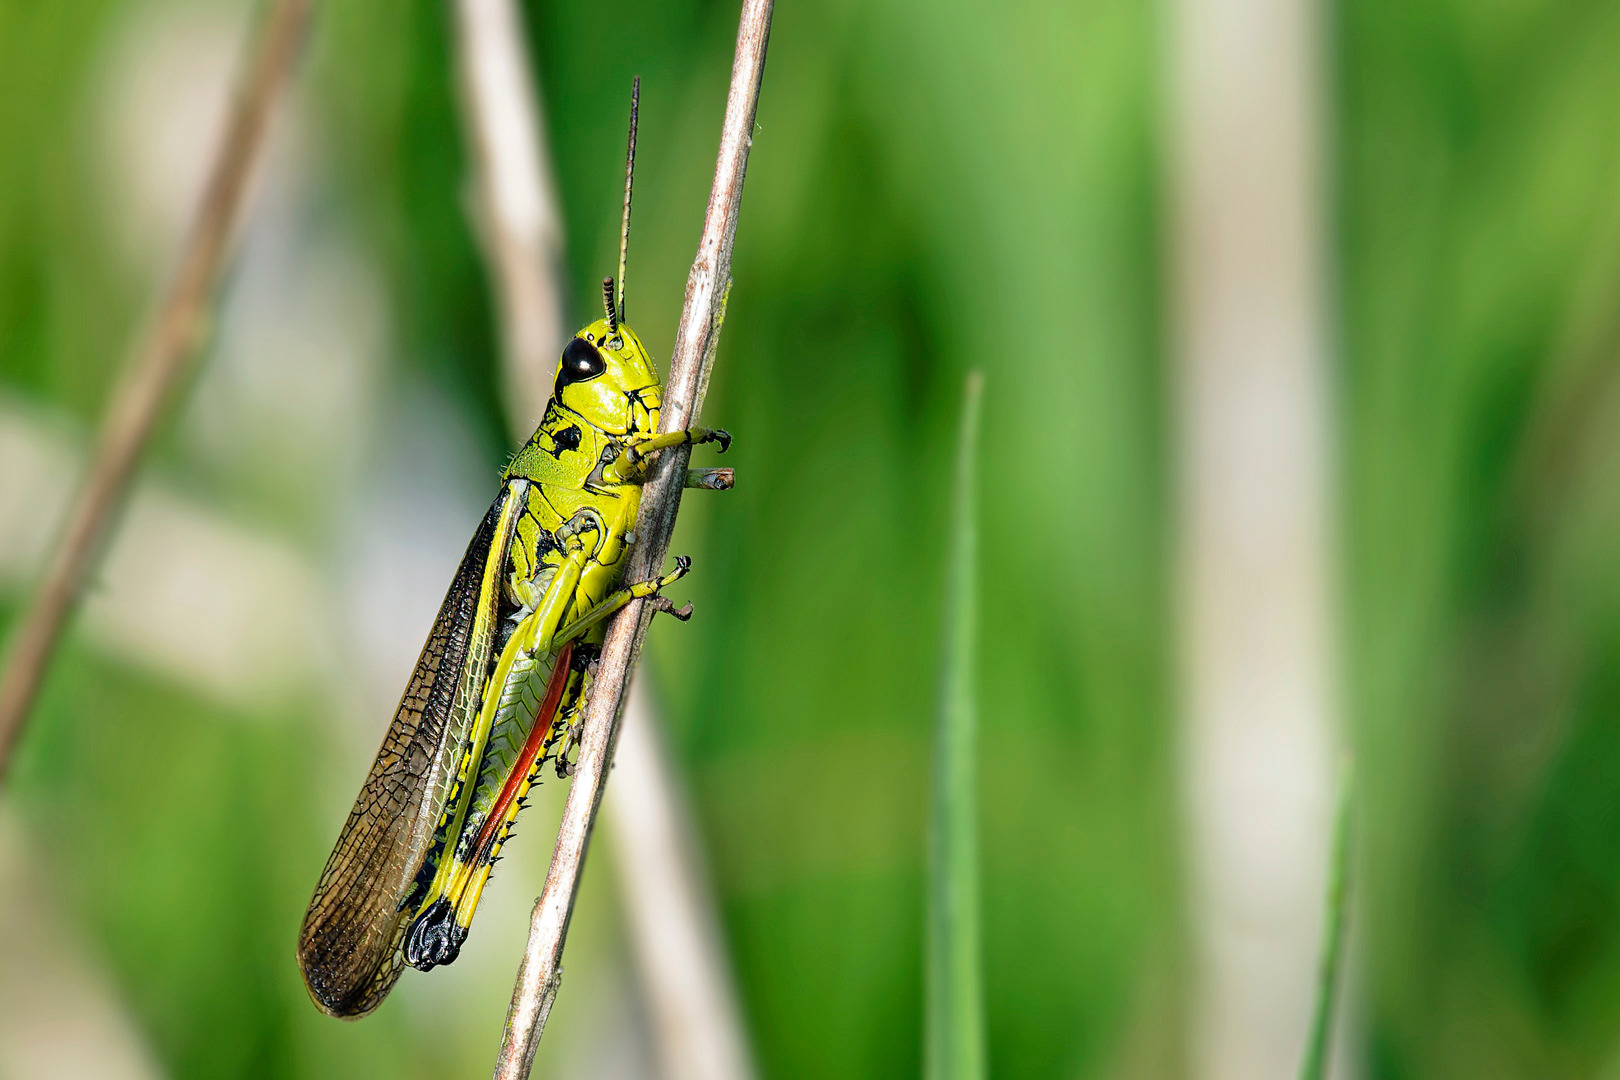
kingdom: Animalia
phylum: Arthropoda
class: Insecta
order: Orthoptera
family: Acrididae
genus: Stethophyma
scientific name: Stethophyma grossum
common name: Sumpgræshoppe
